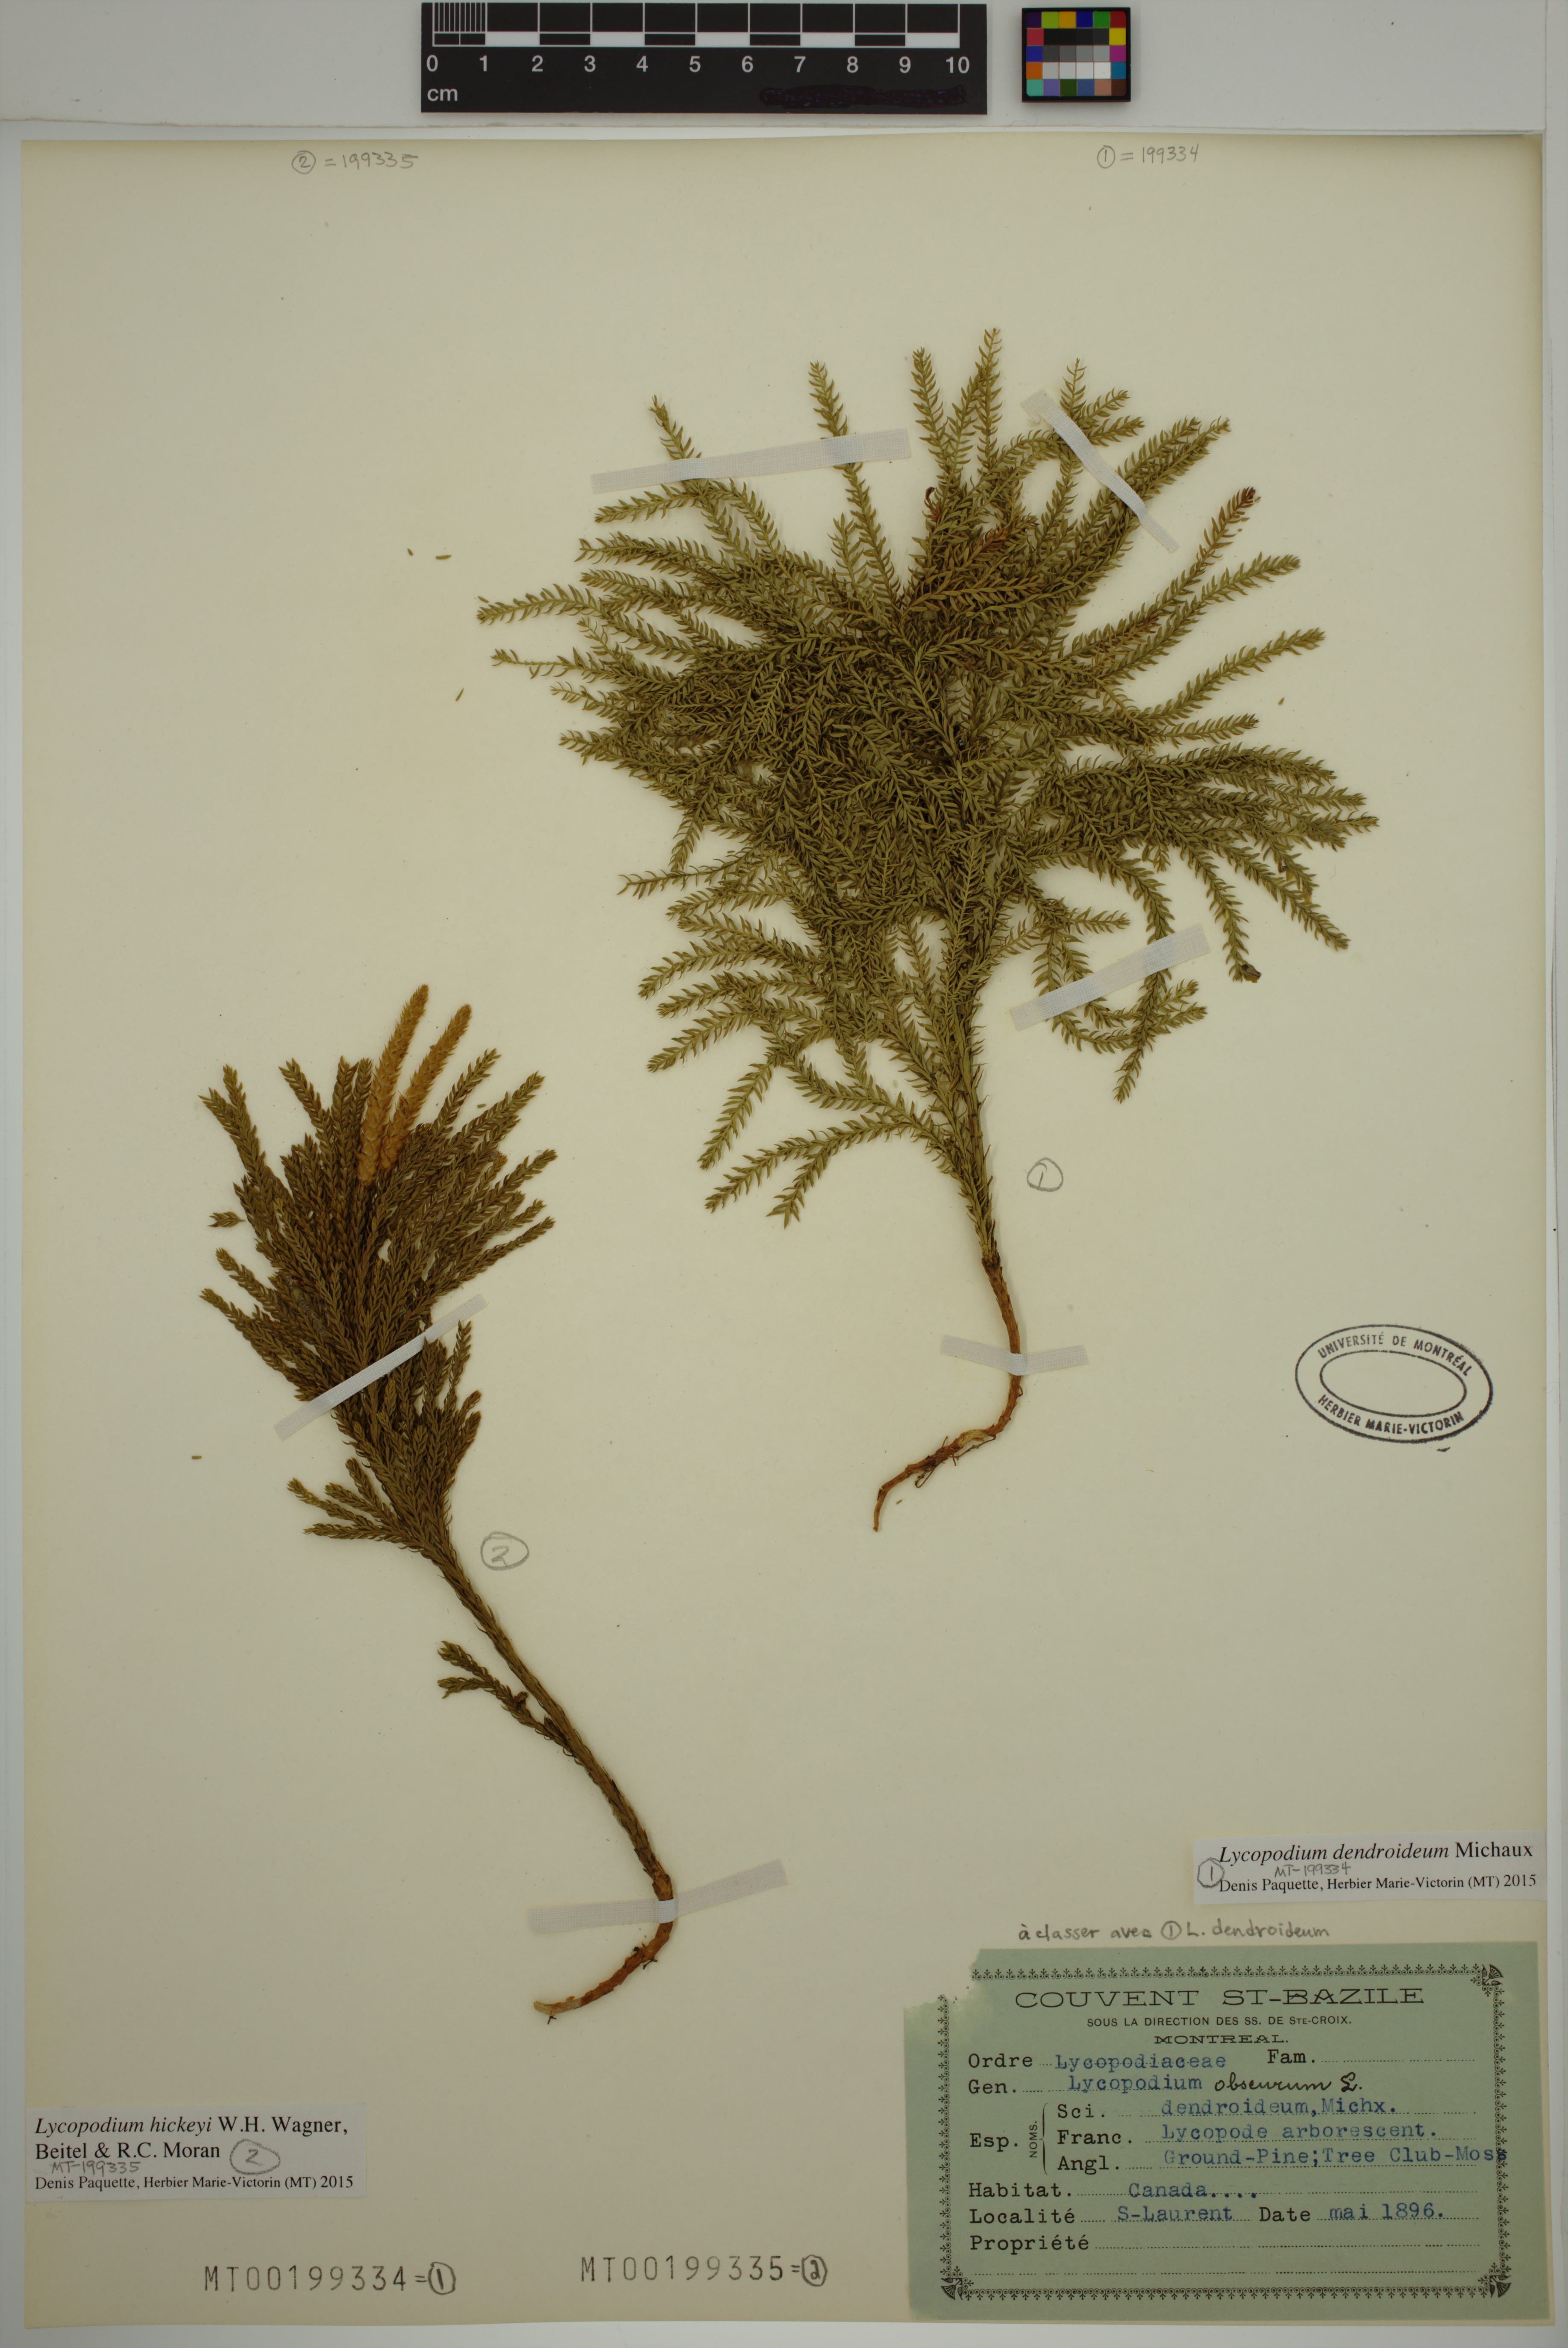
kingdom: Plantae
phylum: Tracheophyta
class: Lycopodiopsida
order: Lycopodiales
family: Lycopodiaceae
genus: Dendrolycopodium
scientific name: Dendrolycopodium hickeyi
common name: Hickey's clubmoss
